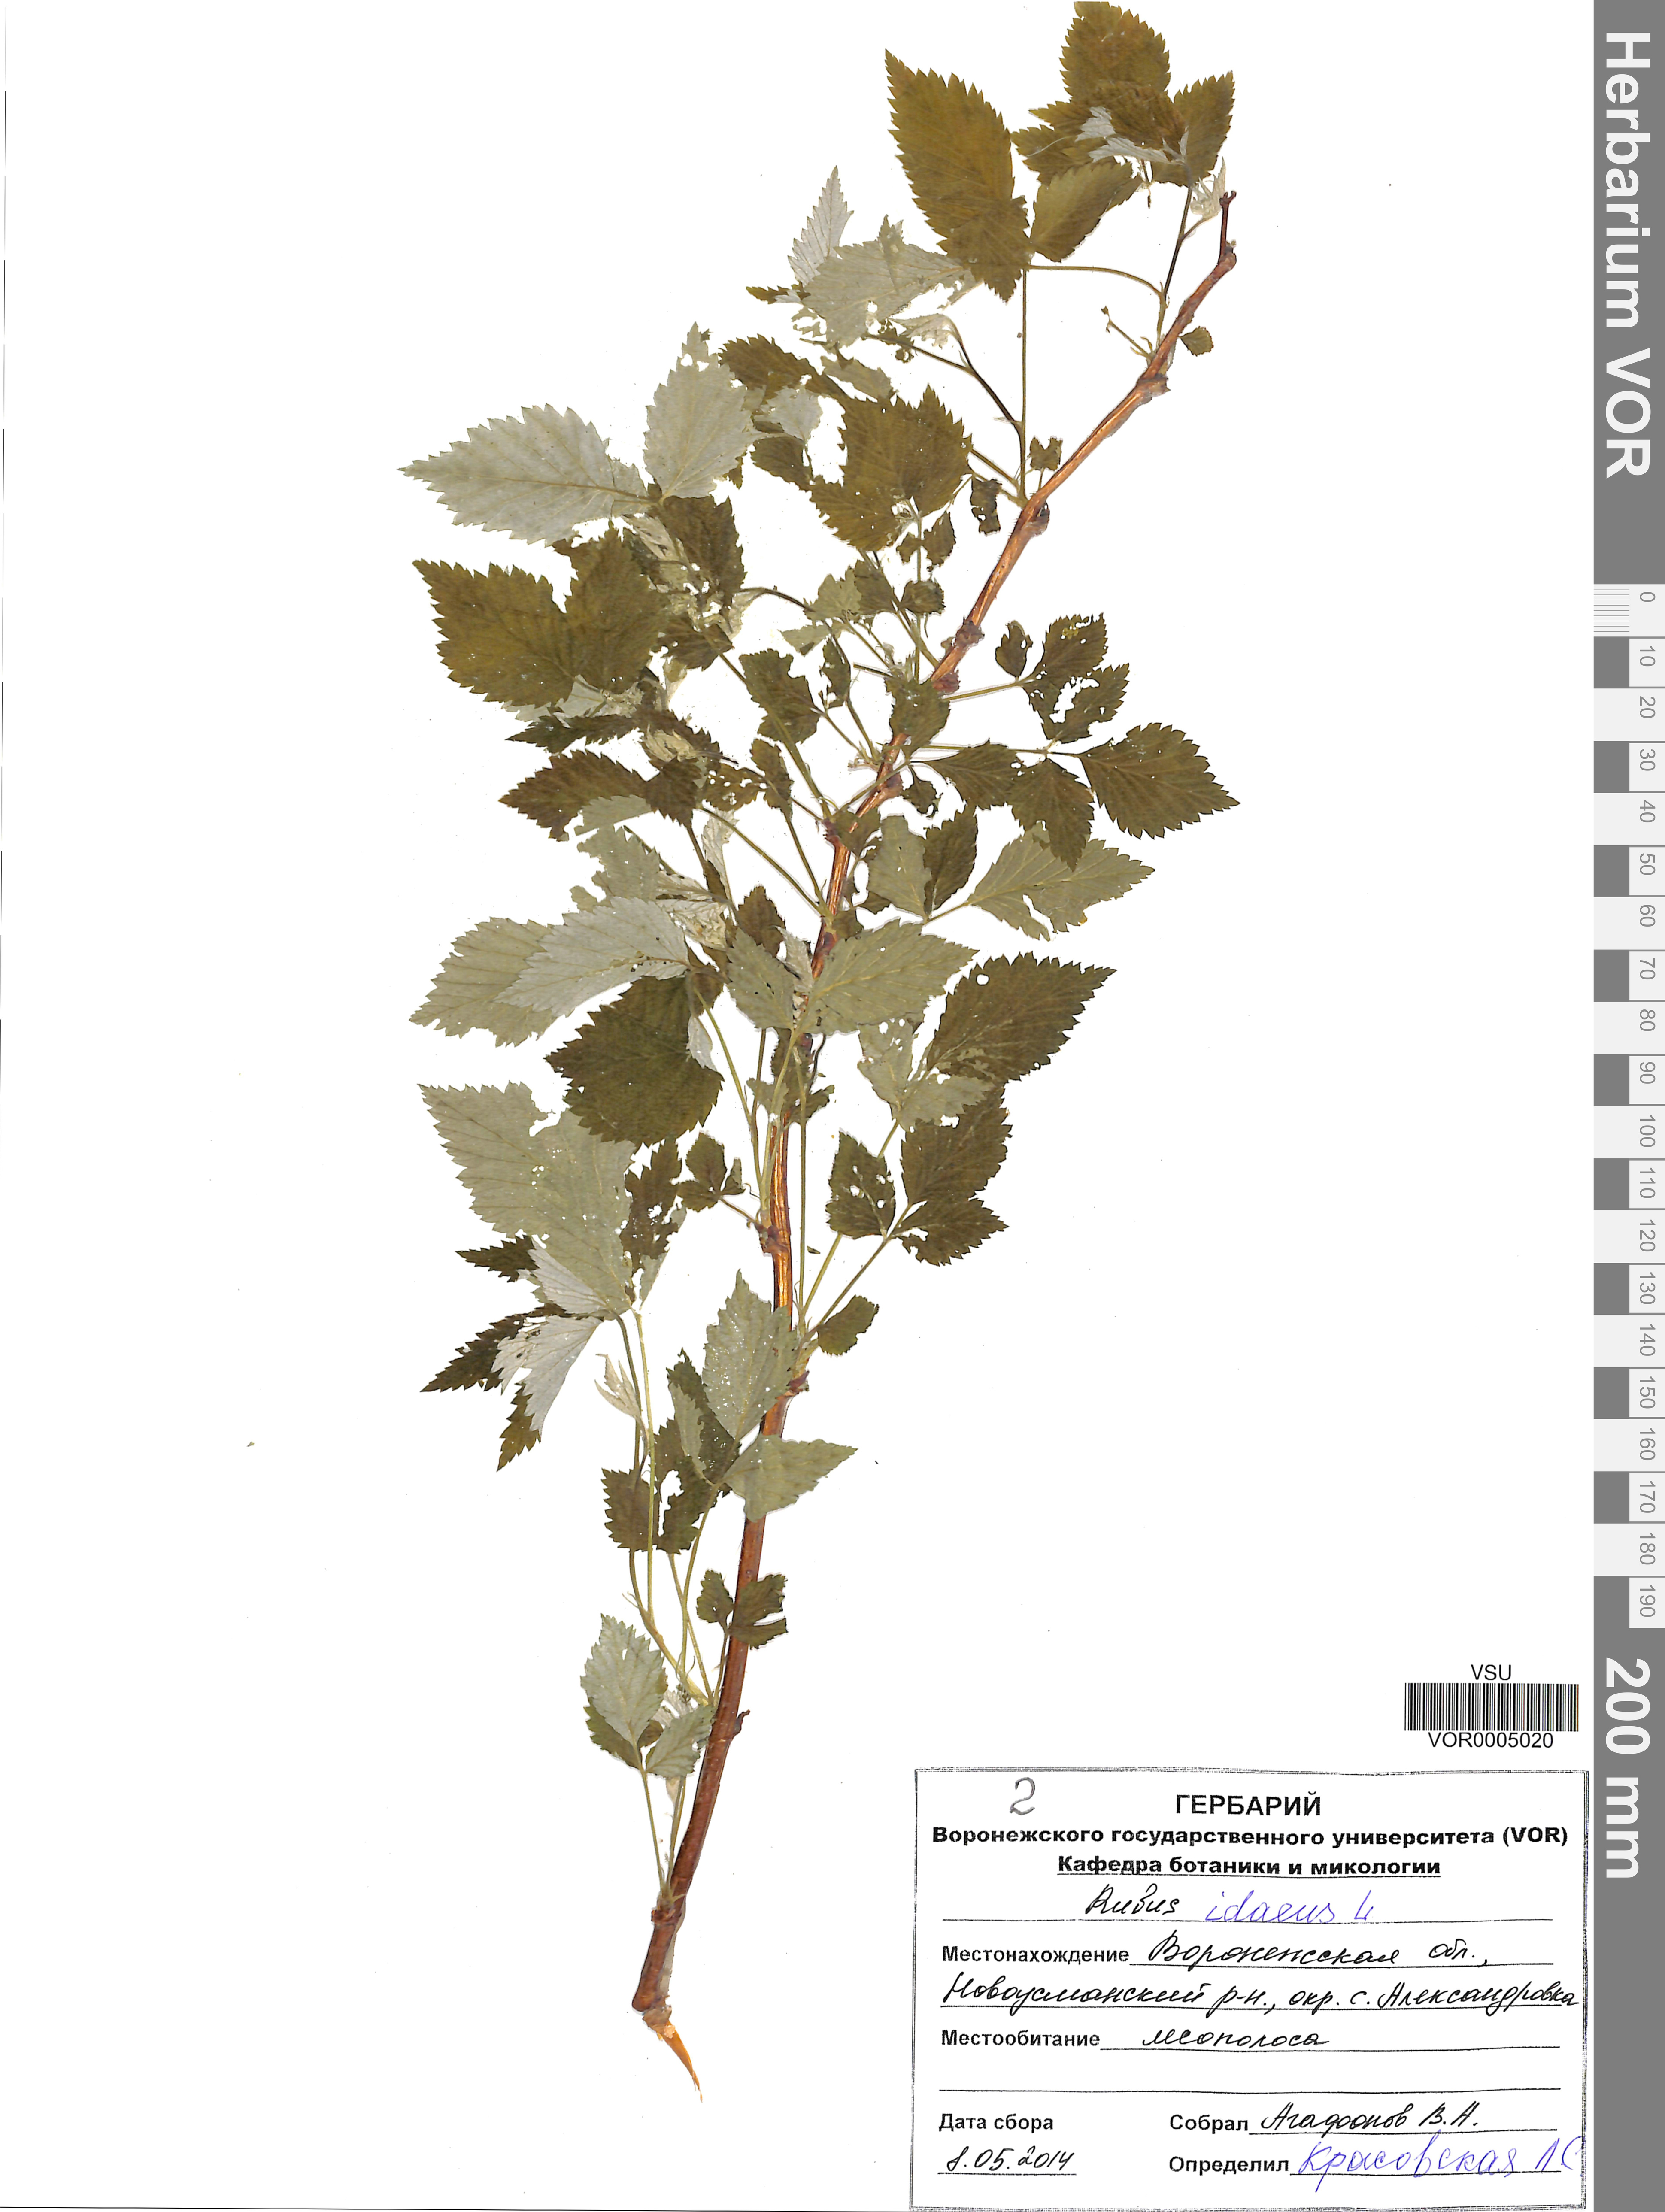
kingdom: Plantae
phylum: Tracheophyta
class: Magnoliopsida
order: Rosales
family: Rosaceae
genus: Rubus
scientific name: Rubus idaeus
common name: Raspberry
